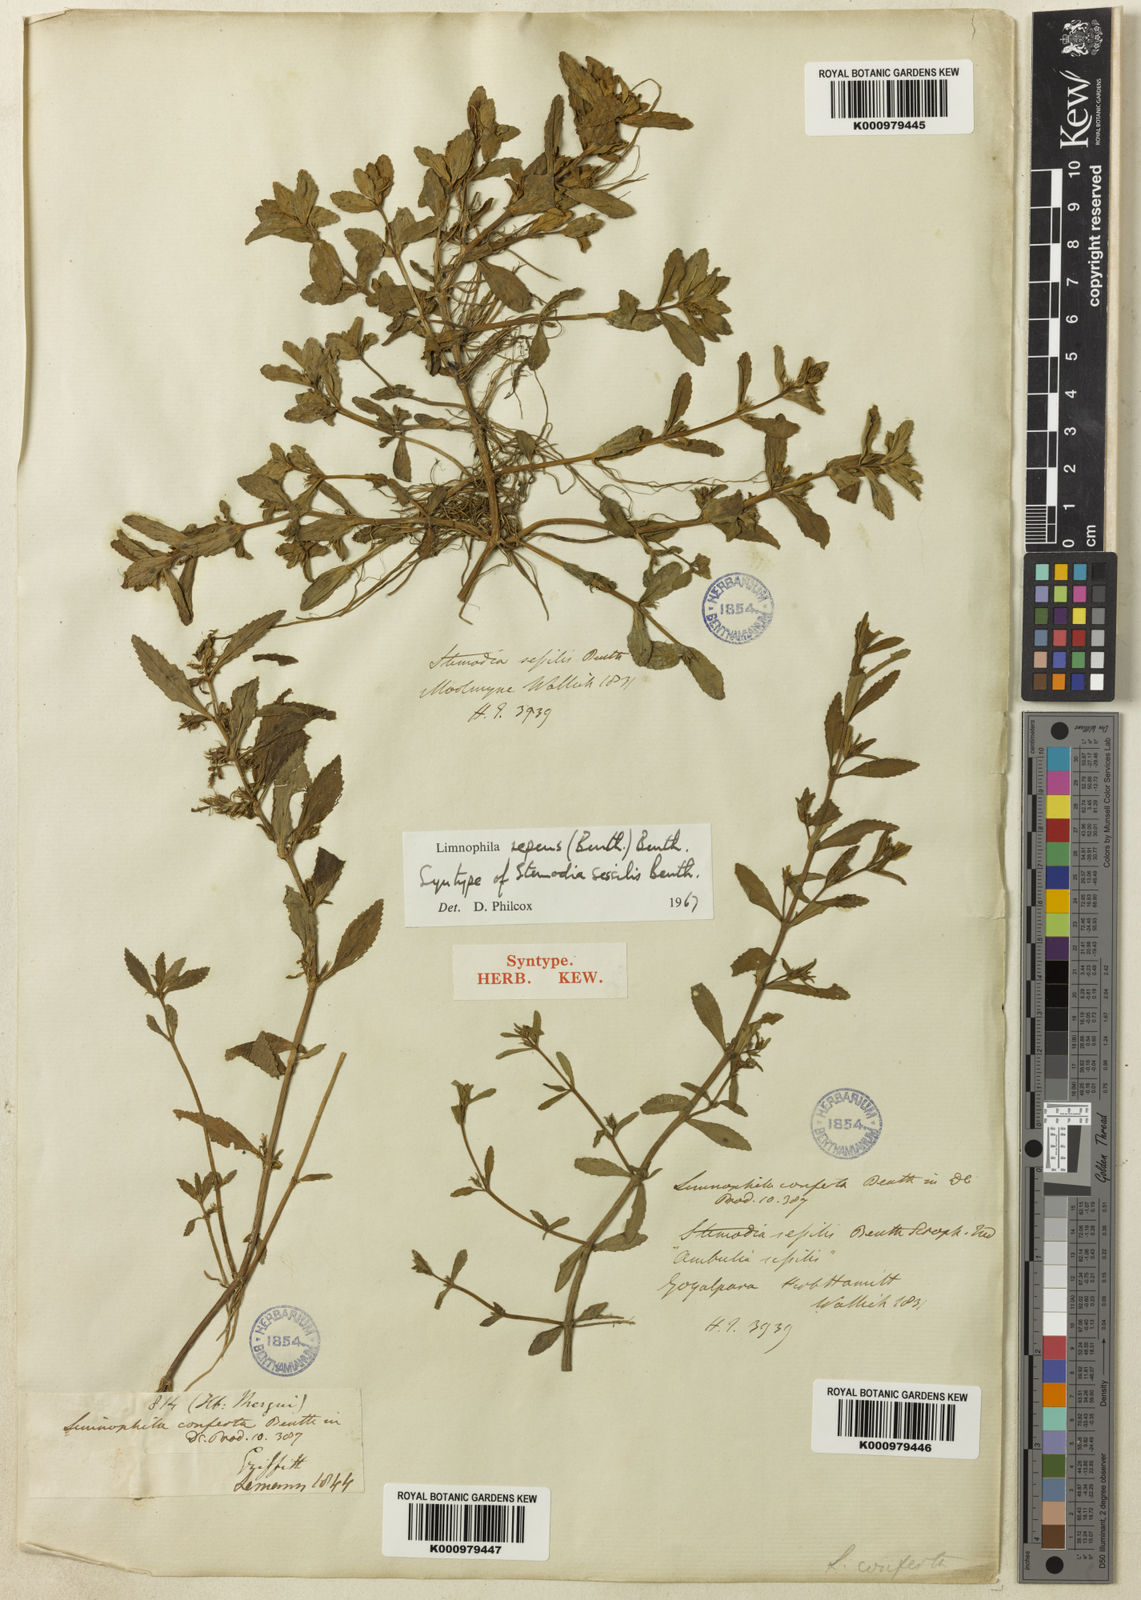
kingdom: Plantae
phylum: Tracheophyta
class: Magnoliopsida
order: Lamiales
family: Plantaginaceae
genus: Limnophila
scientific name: Limnophila repens
